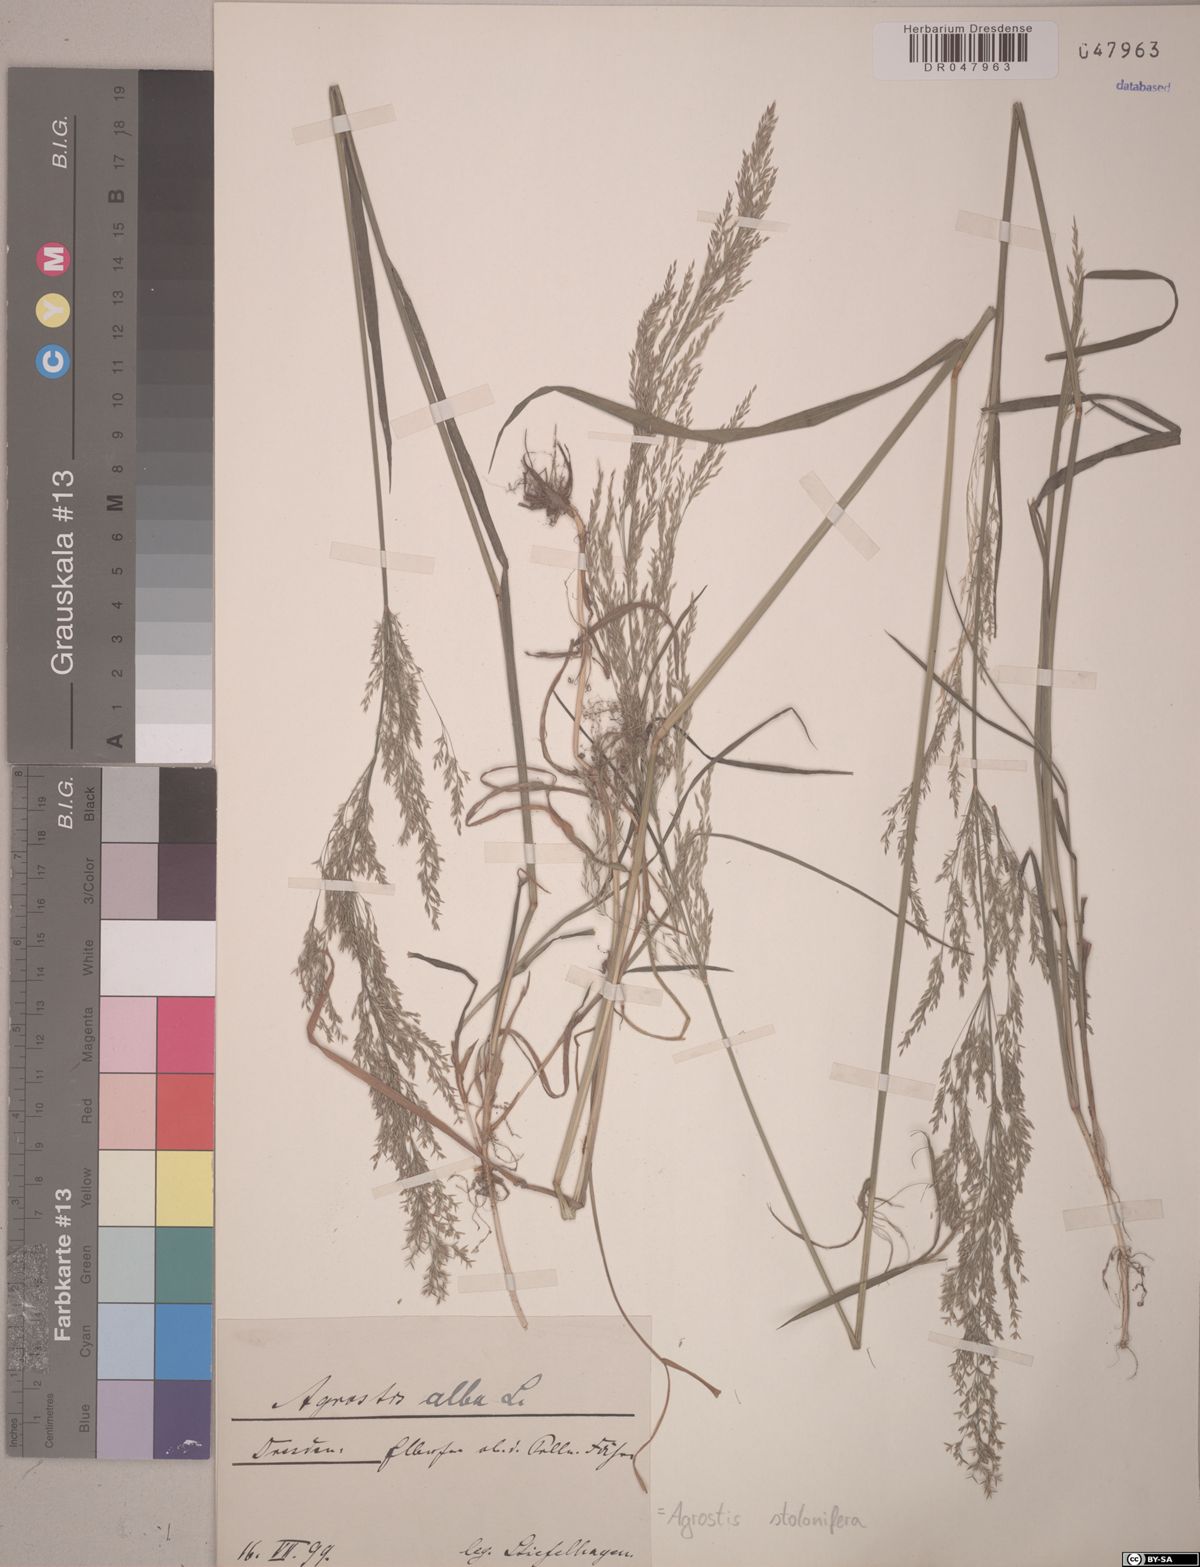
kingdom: Plantae
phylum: Tracheophyta
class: Liliopsida
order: Poales
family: Poaceae
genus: Agrostis
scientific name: Agrostis stolonifera
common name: Creeping bentgrass
